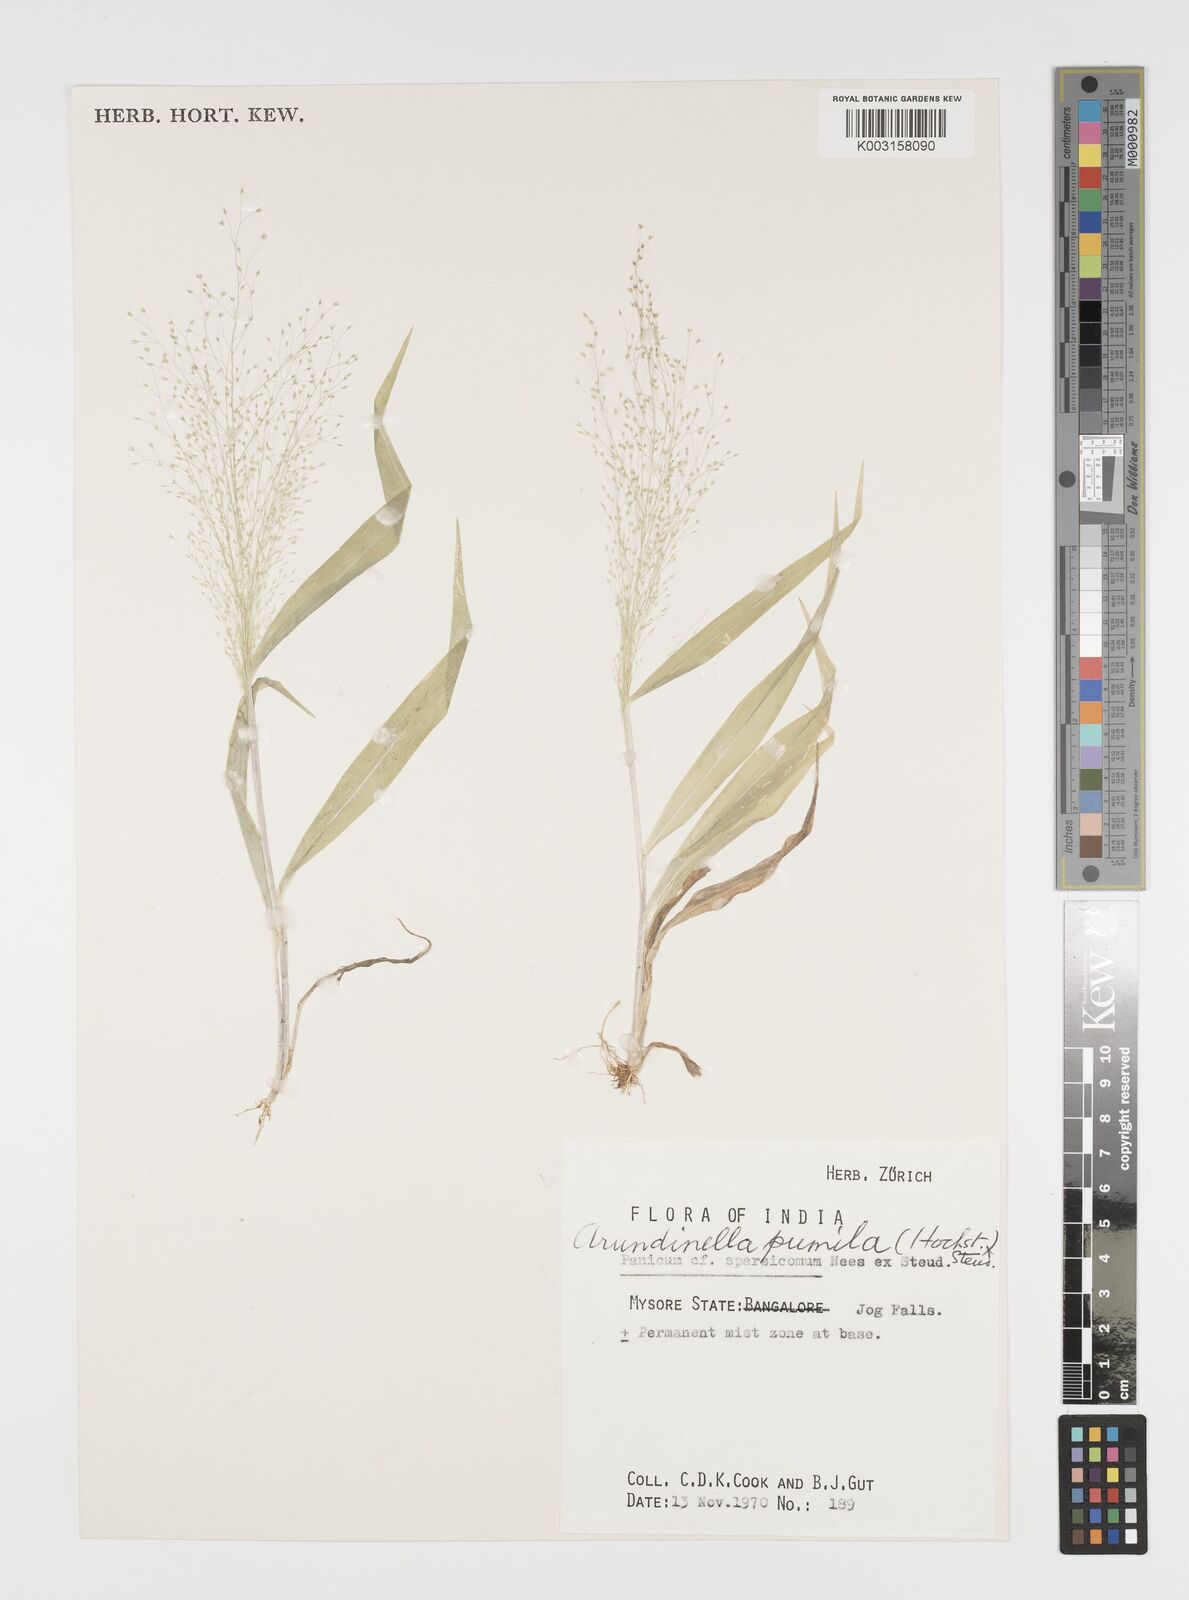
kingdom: Plantae
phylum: Tracheophyta
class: Liliopsida
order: Poales
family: Poaceae
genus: Arundinella
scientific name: Arundinella pumila
